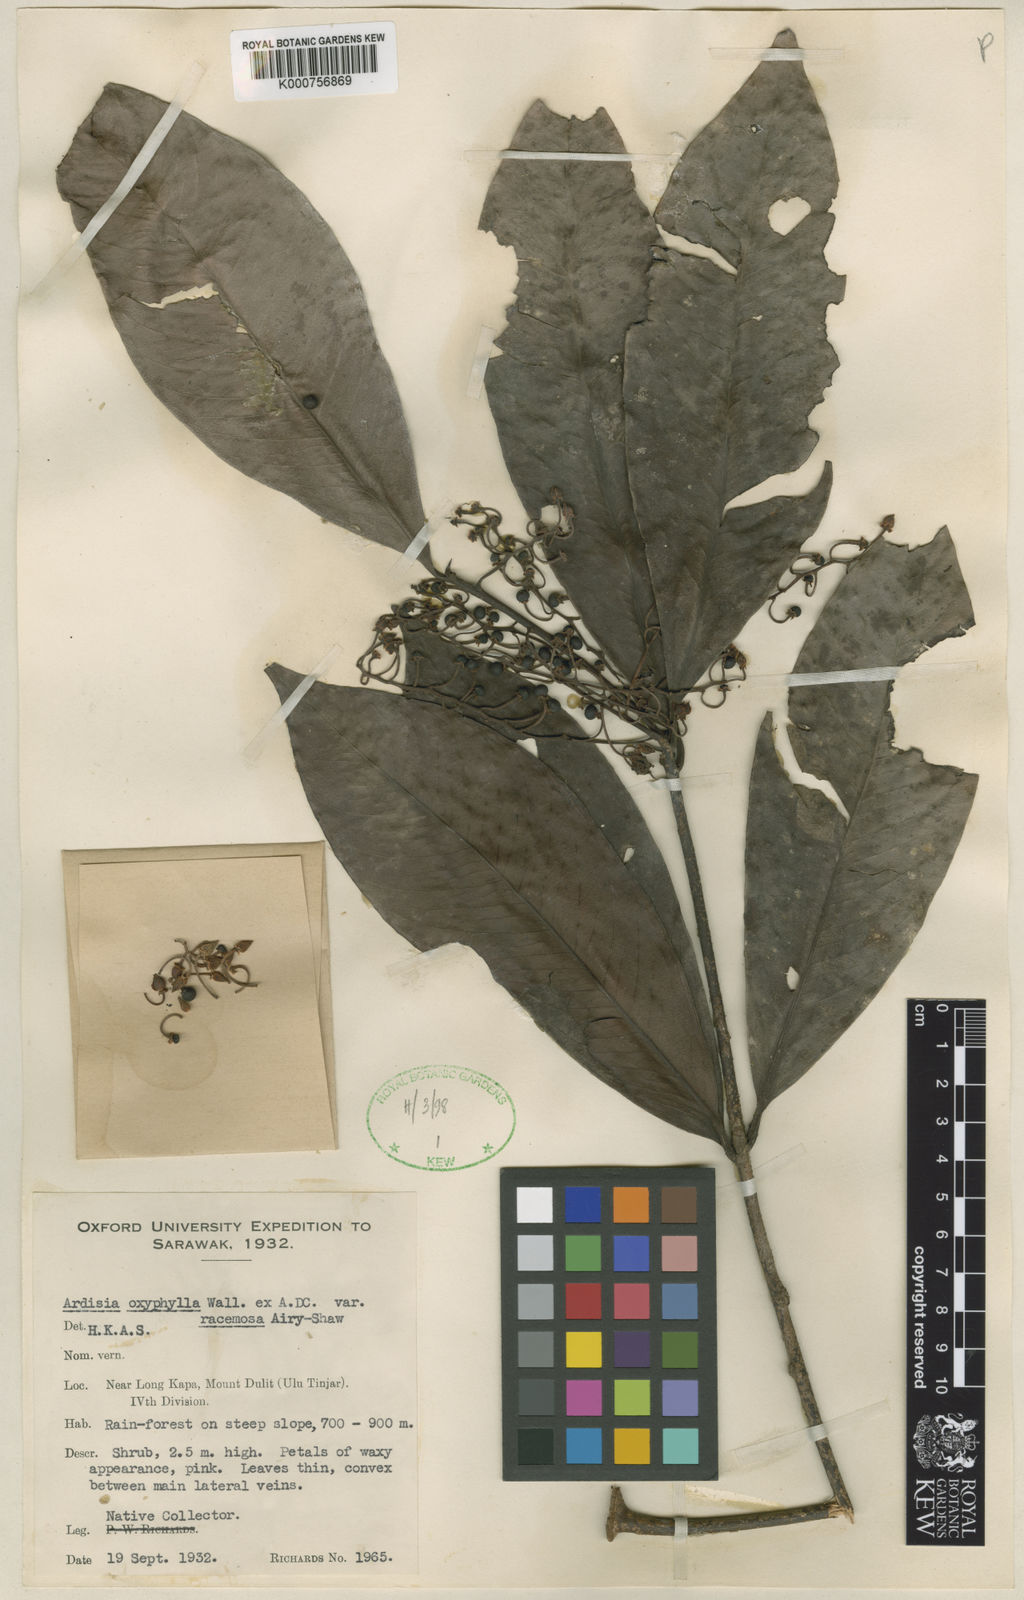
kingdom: Plantae
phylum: Tracheophyta
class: Magnoliopsida
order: Ericales
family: Primulaceae
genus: Ardisia
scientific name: Ardisia
